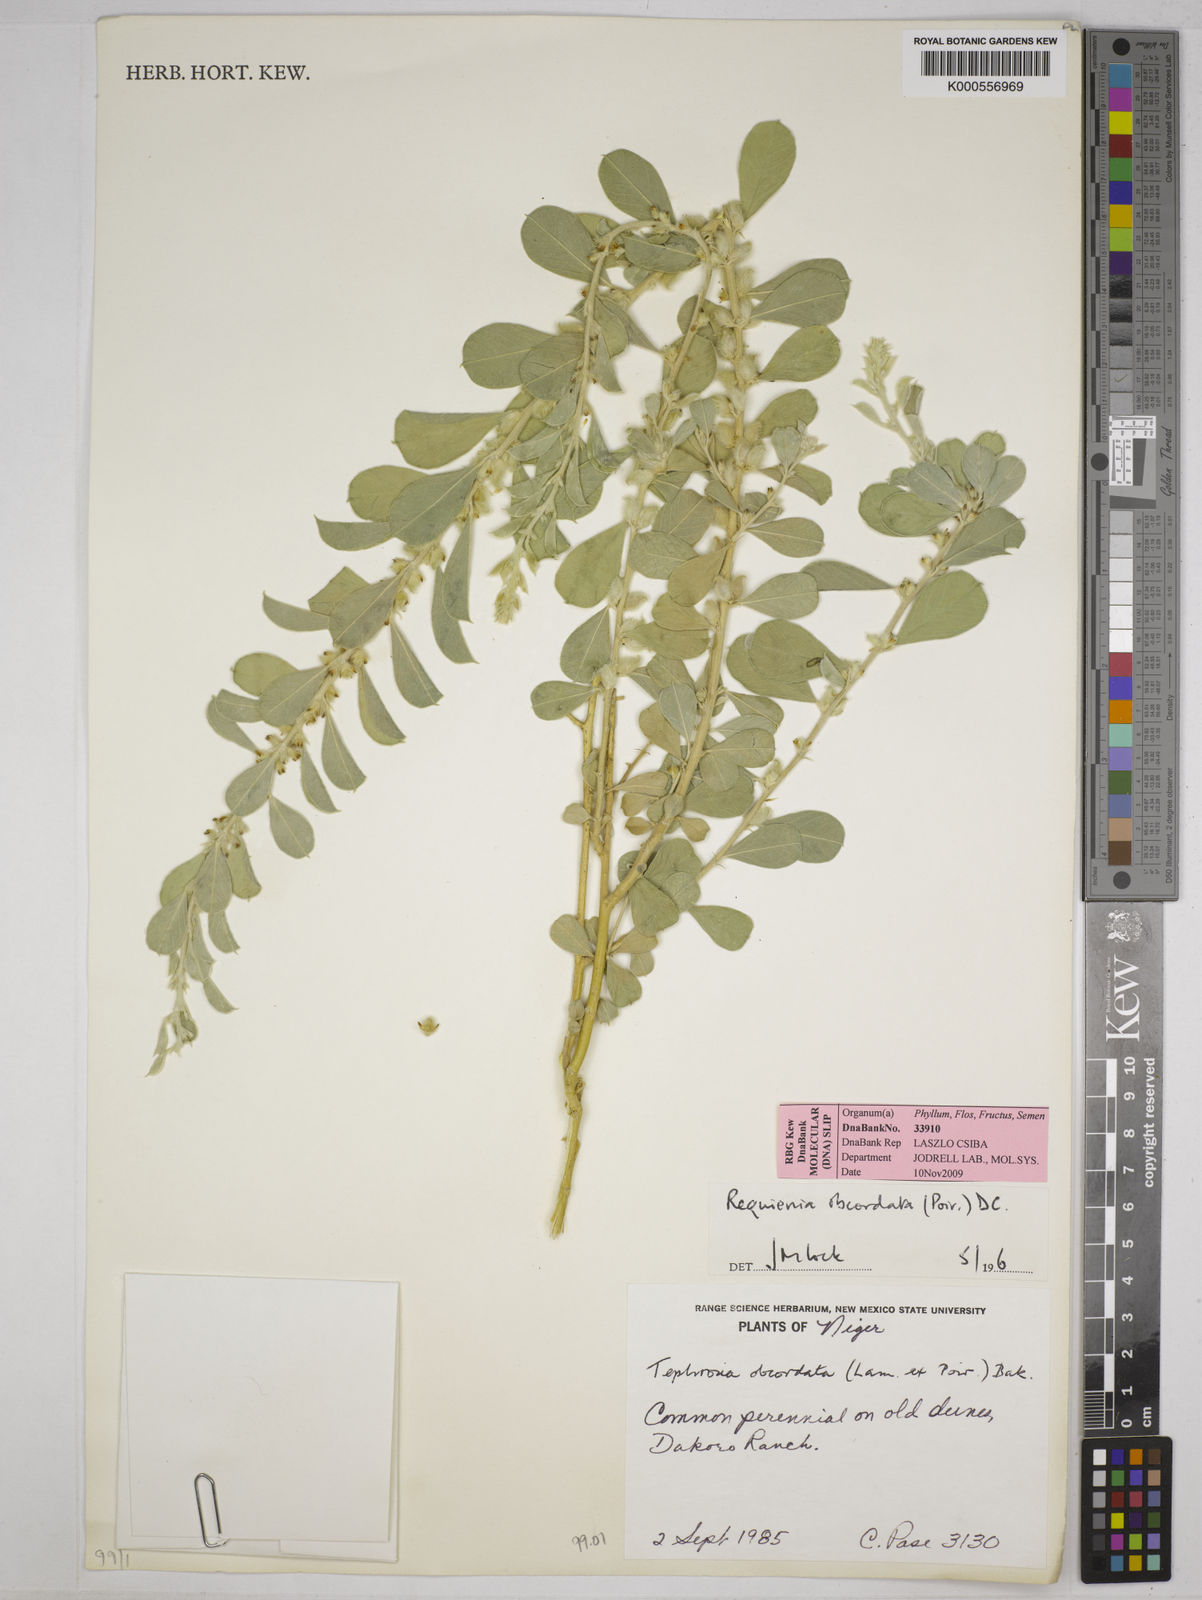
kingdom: Plantae
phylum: Tracheophyta
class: Magnoliopsida
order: Fabales
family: Fabaceae
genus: Tephrosia
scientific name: Tephrosia obcordata
